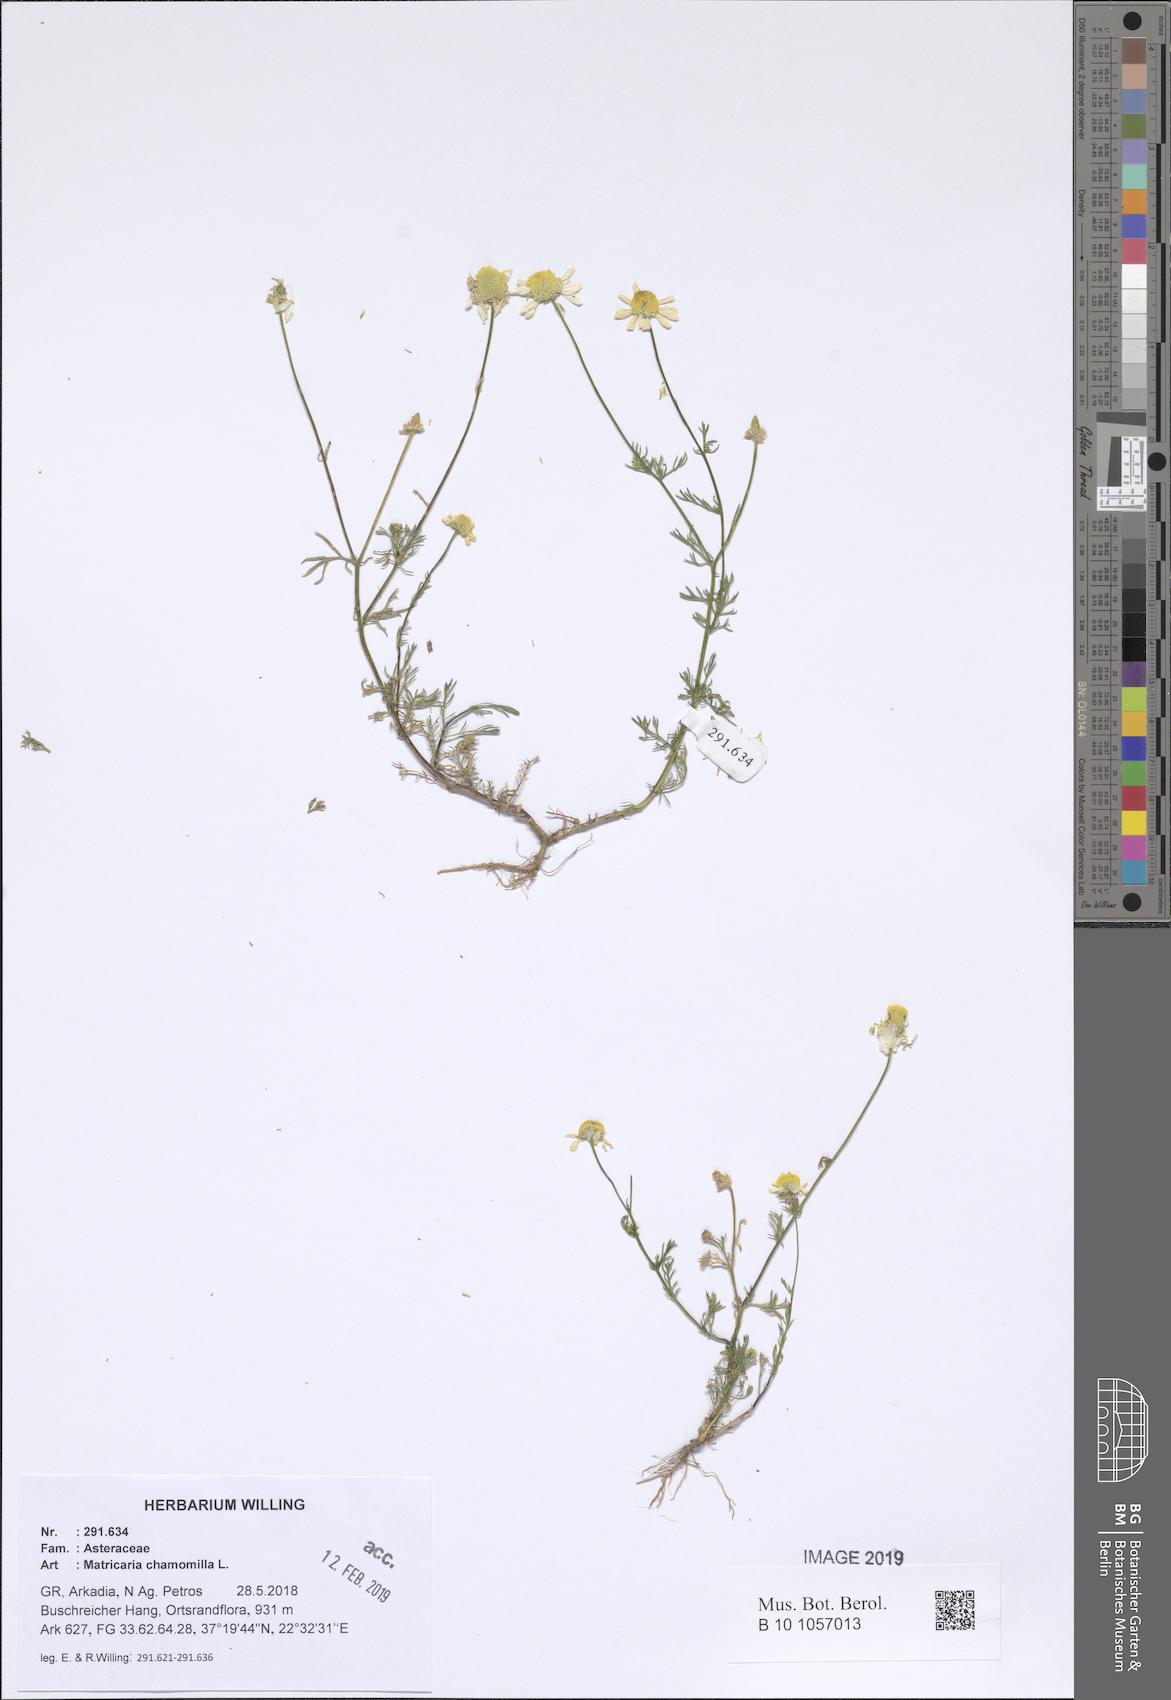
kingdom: Plantae
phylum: Tracheophyta
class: Magnoliopsida
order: Asterales
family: Asteraceae
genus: Matricaria
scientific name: Matricaria chamomilla
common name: Scented mayweed
